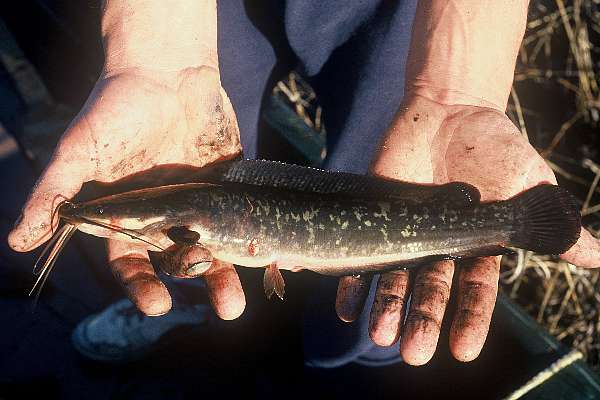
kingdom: Animalia
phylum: Chordata
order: Siluriformes
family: Clariidae
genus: Clarias
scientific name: Clarias ngamensis
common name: Blunt-toothed african catfish
